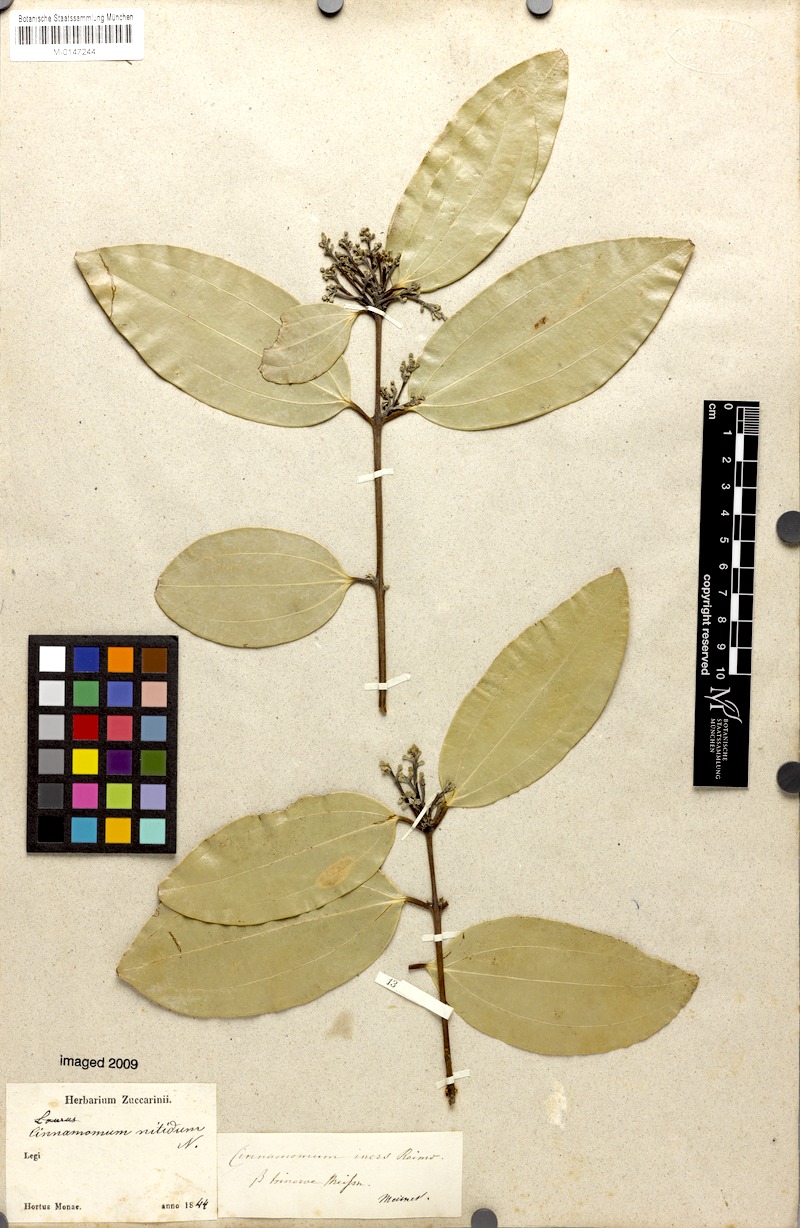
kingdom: Plantae
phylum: Tracheophyta
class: Magnoliopsida
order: Laurales
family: Lauraceae
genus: Cinnamomum
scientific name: Cinnamomum iners
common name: Wild cinnamon
